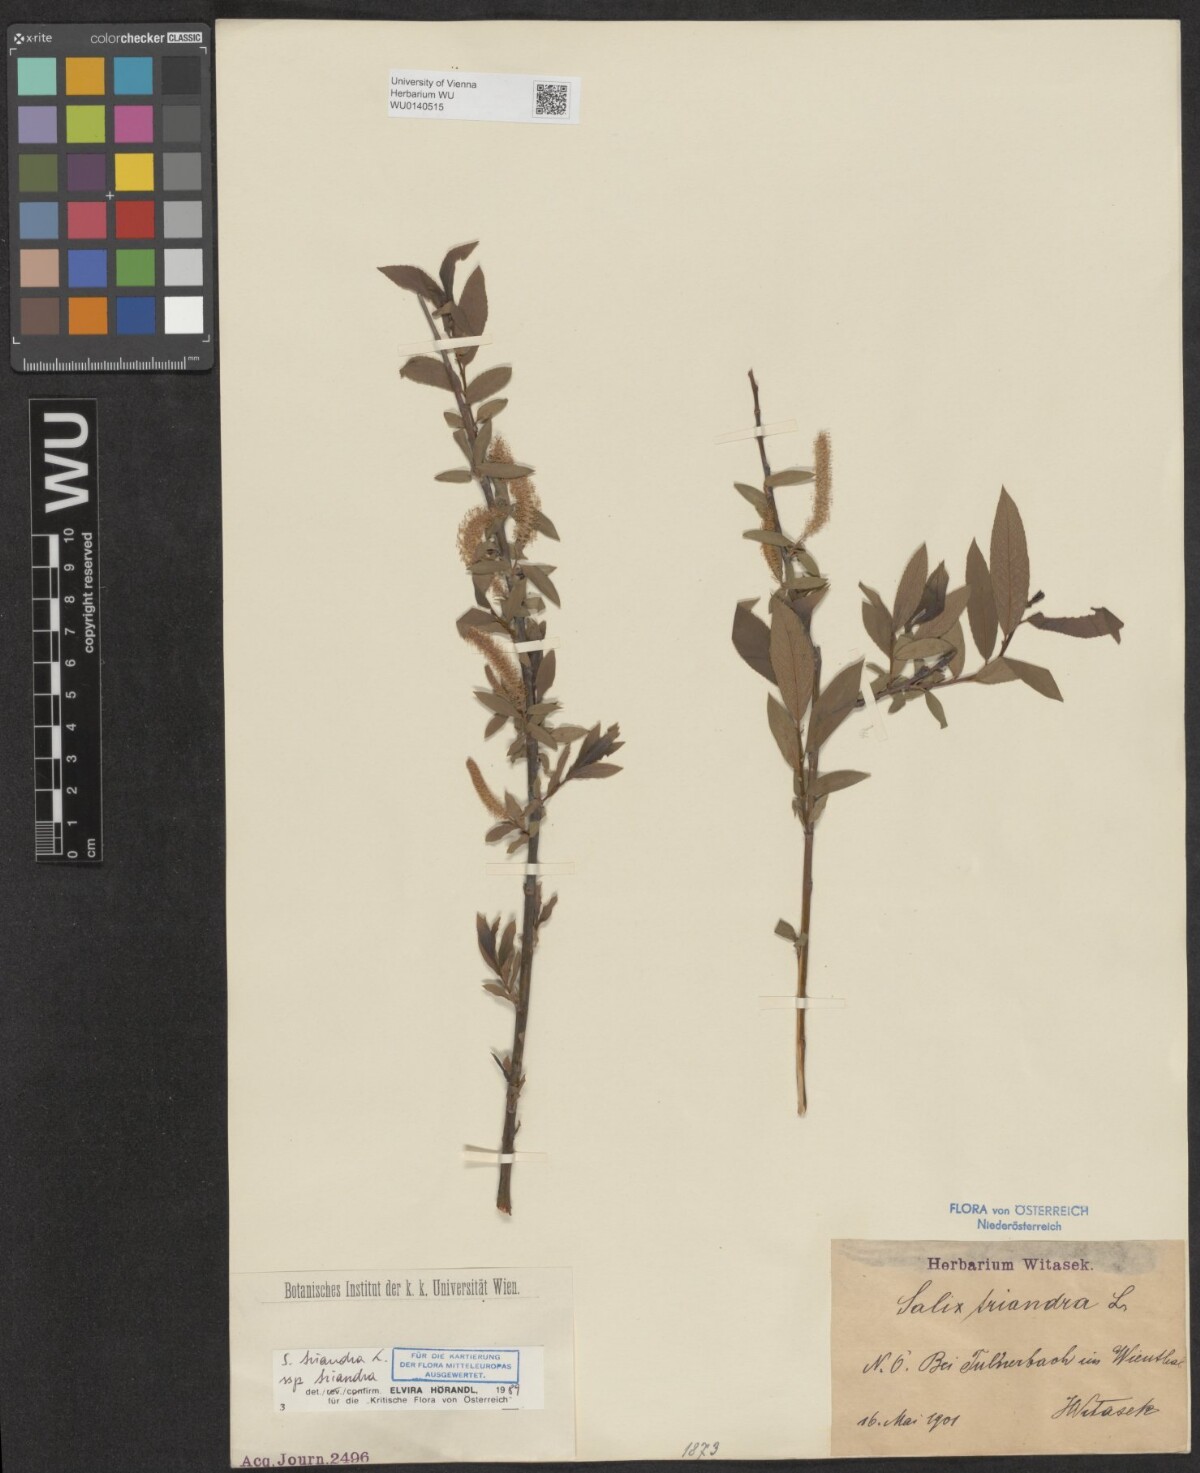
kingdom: Plantae
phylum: Tracheophyta
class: Magnoliopsida
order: Malpighiales
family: Salicaceae
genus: Salix
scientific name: Salix triandra
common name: Almond willow
